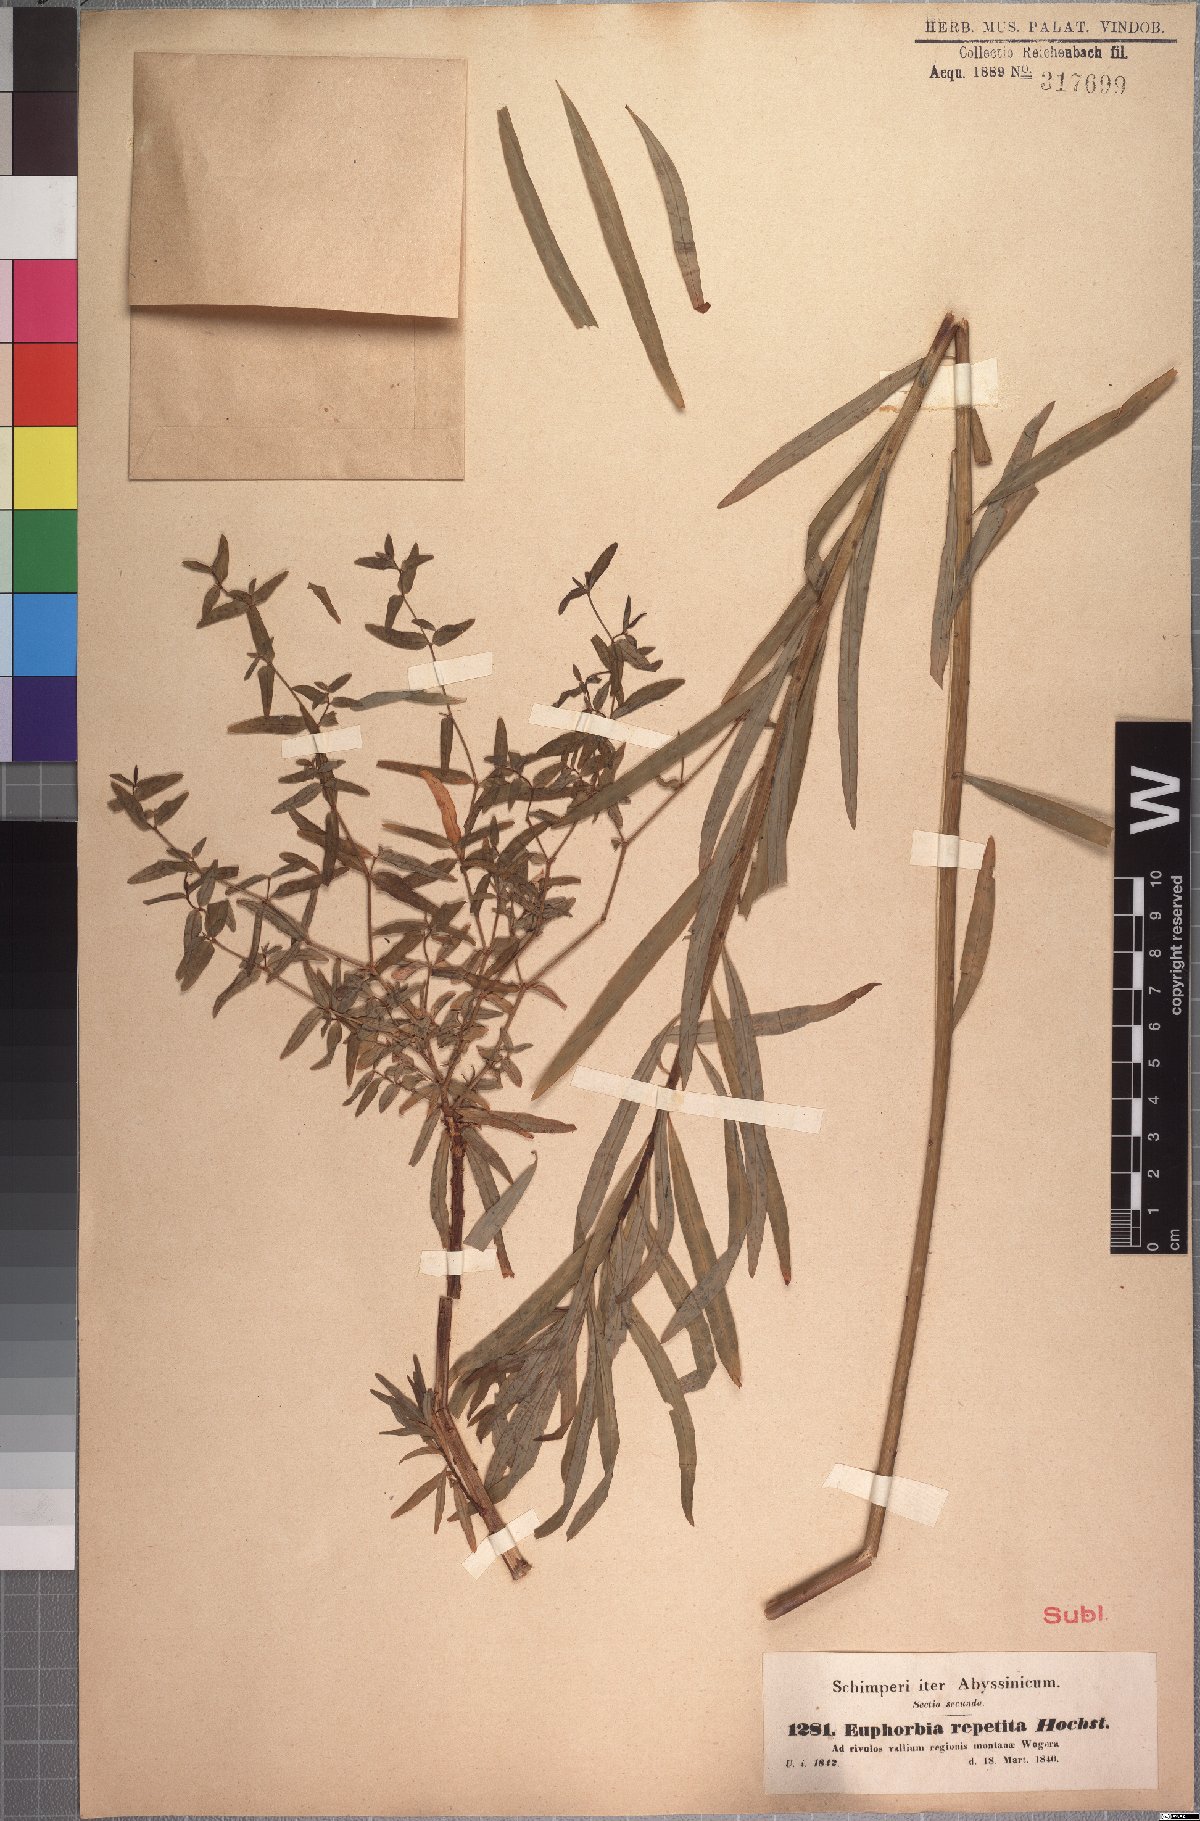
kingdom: Plantae
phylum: Tracheophyta
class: Magnoliopsida
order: Malpighiales
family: Euphorbiaceae
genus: Euphorbia
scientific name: Euphorbia repetita
